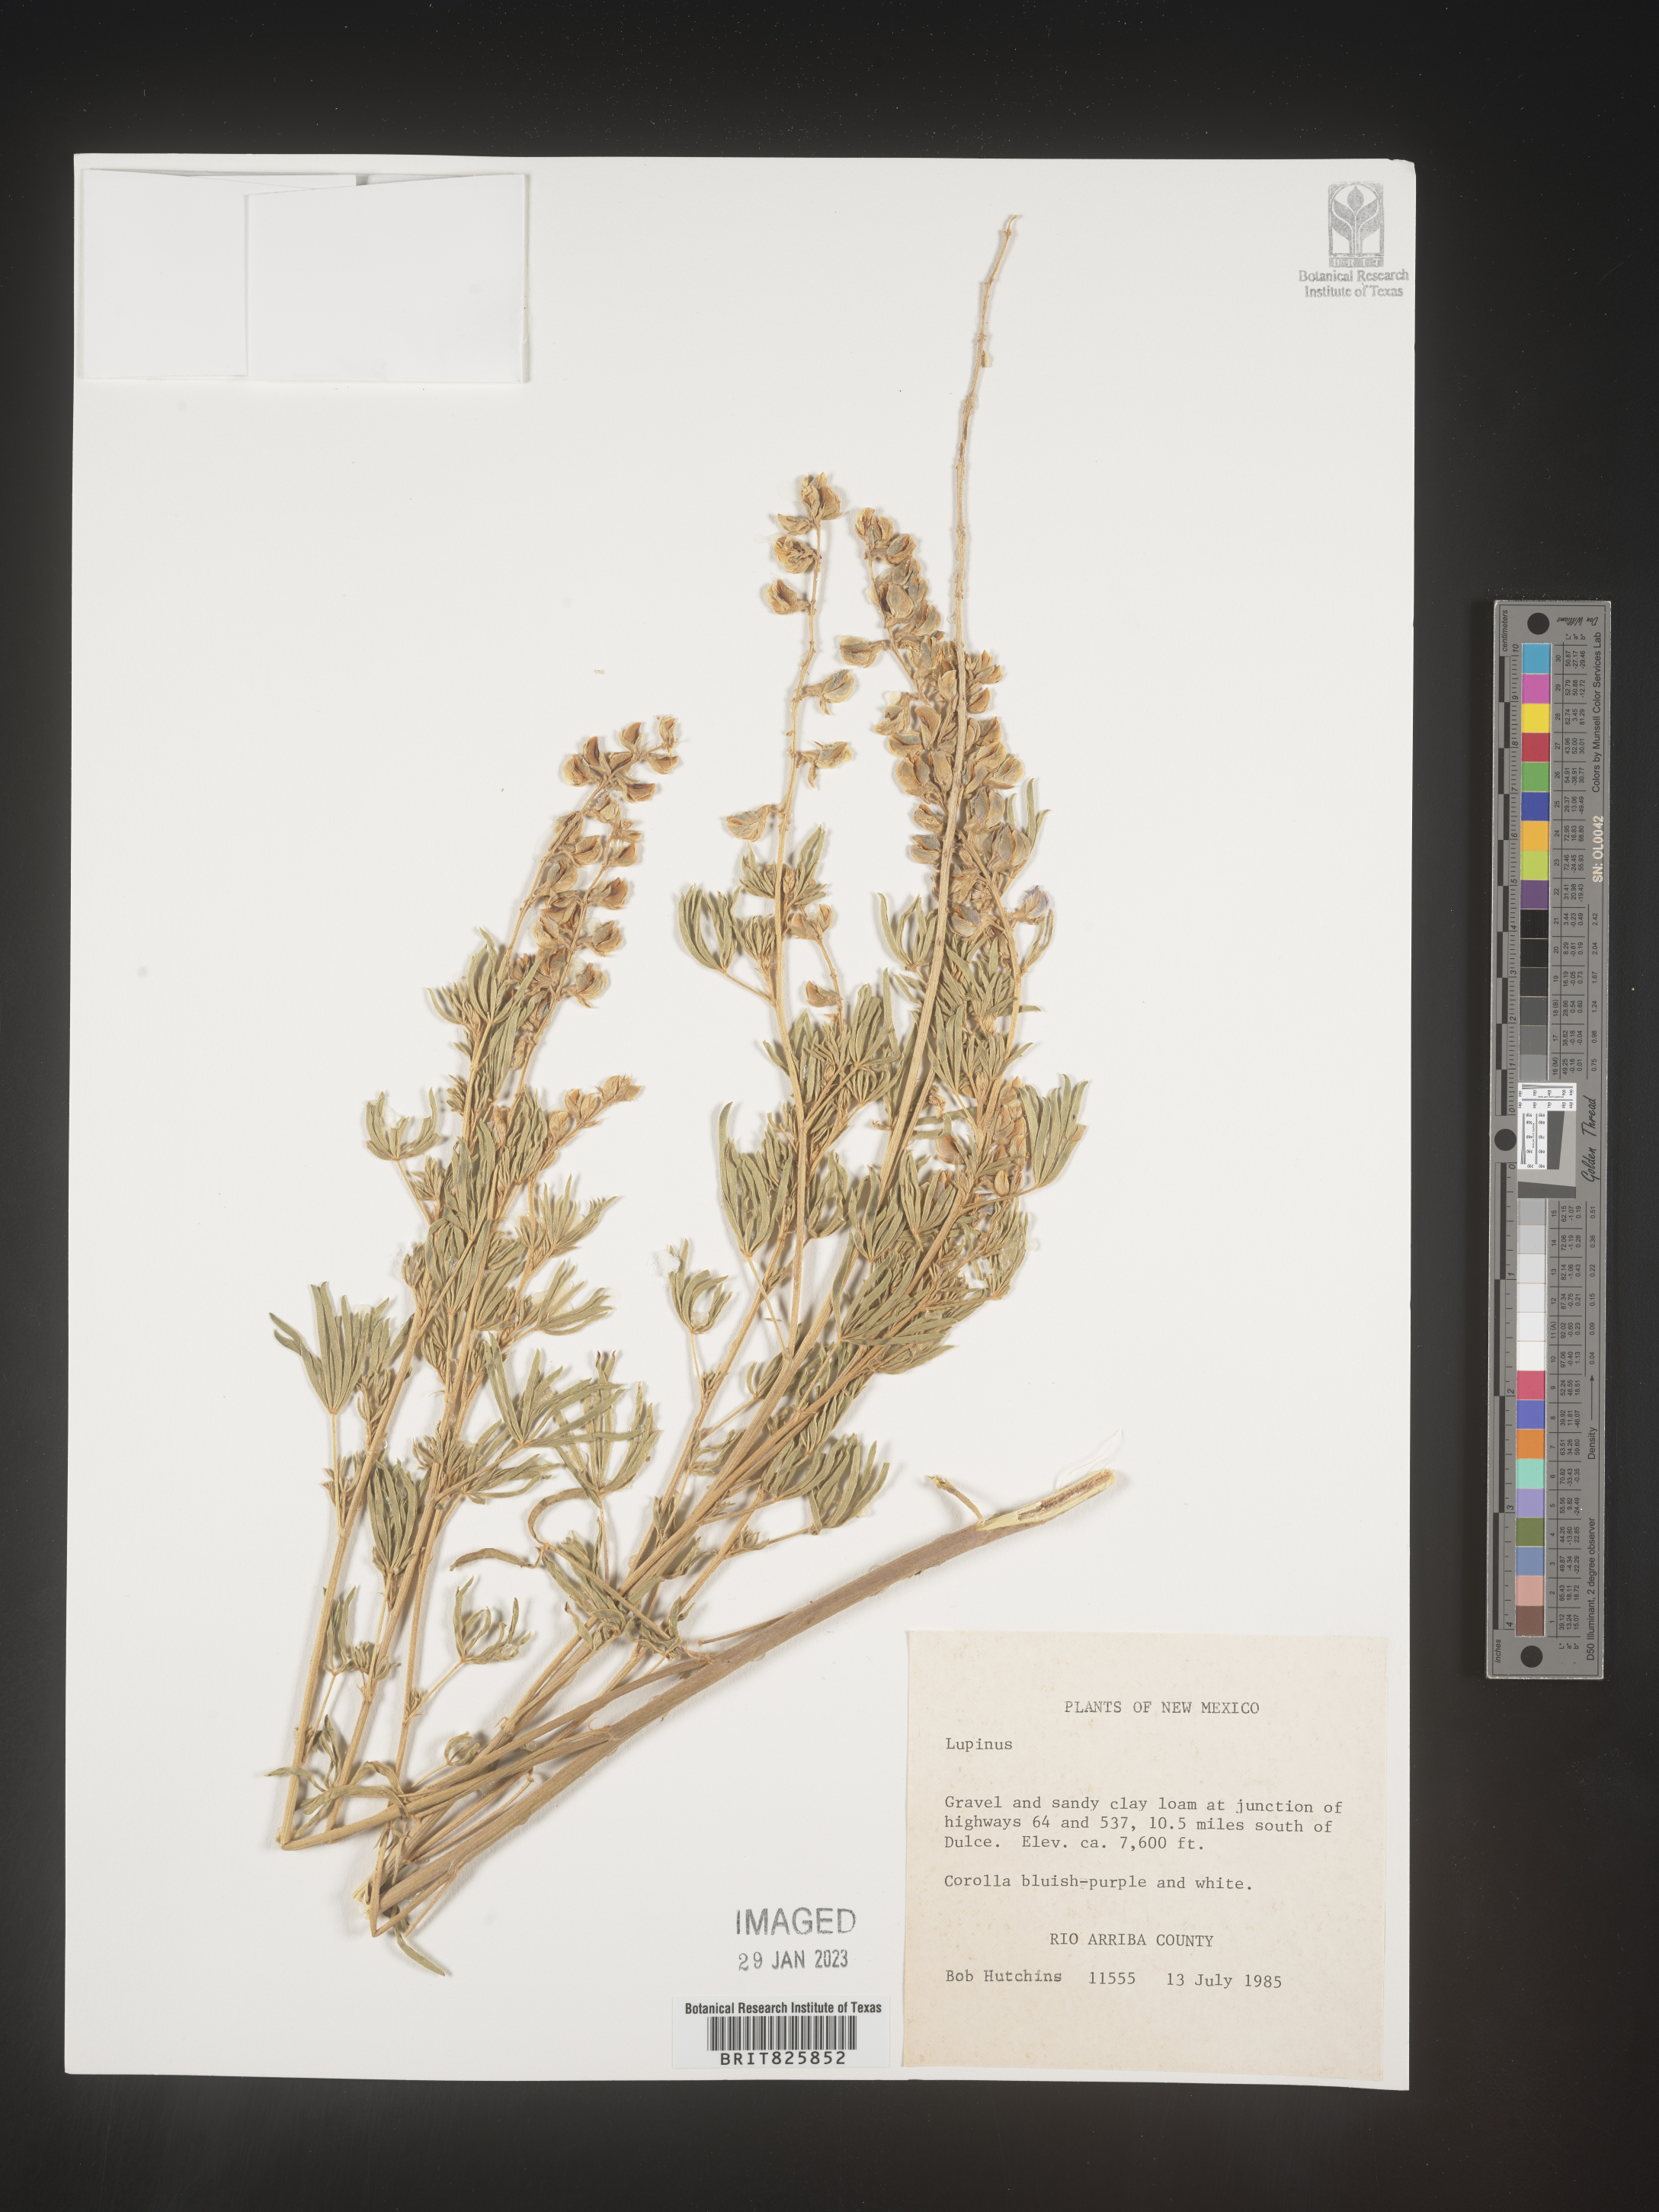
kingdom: Plantae
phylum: Tracheophyta
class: Magnoliopsida
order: Fabales
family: Fabaceae
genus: Lupinus
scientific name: Lupinus
